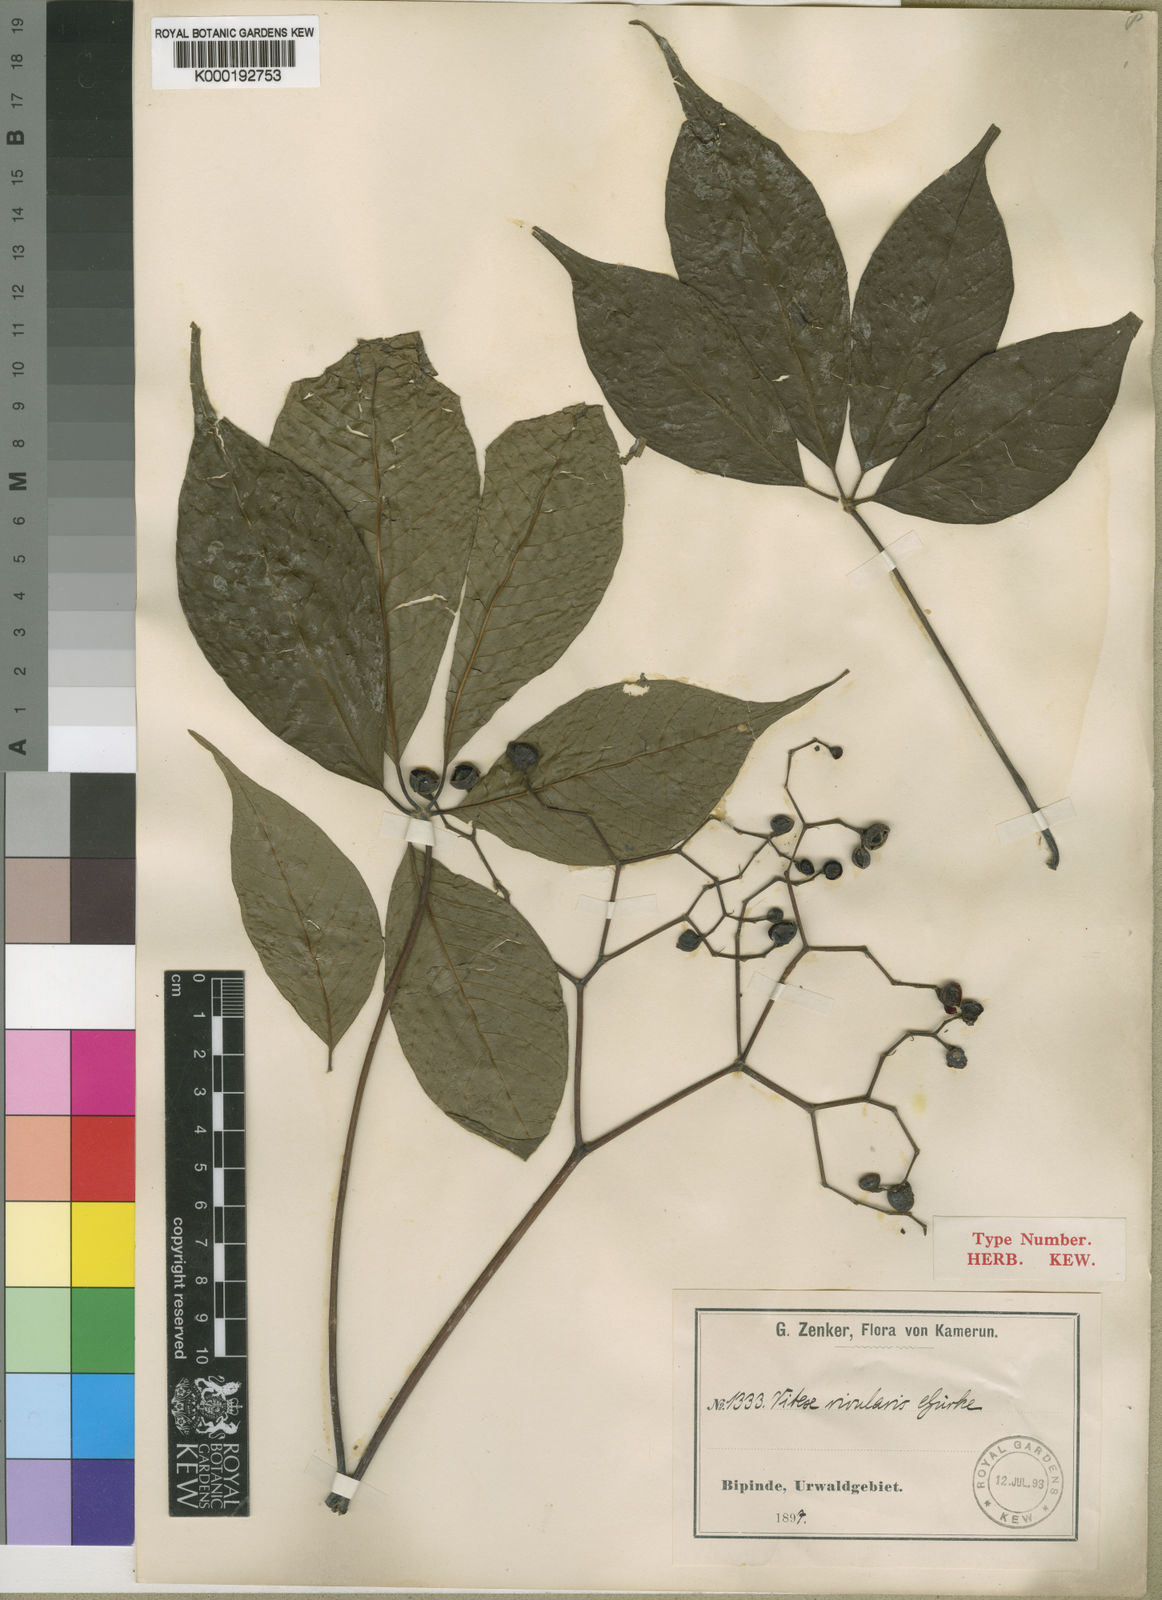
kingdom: Plantae
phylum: Tracheophyta
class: Magnoliopsida
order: Lamiales
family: Lamiaceae
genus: Vitex
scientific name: Vitex
